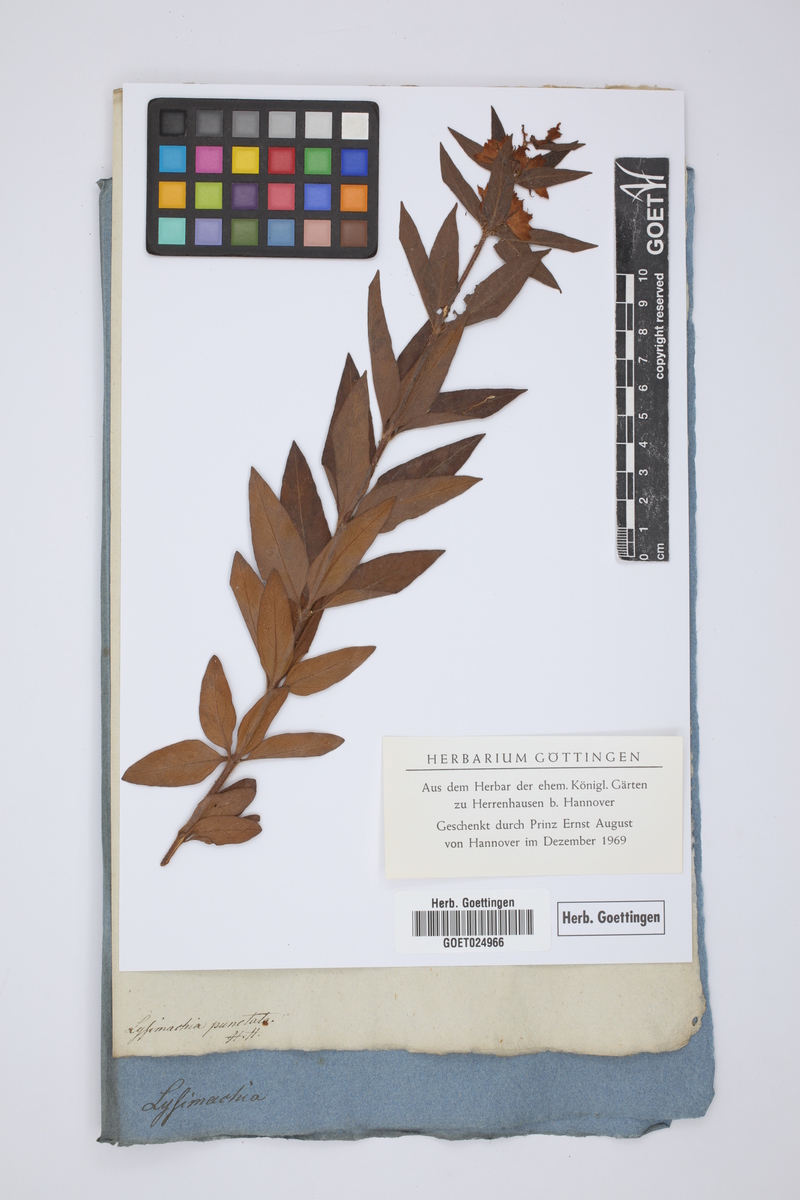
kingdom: Plantae
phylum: Tracheophyta
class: Magnoliopsida
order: Ericales
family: Primulaceae
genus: Lysimachia
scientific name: Lysimachia punctata
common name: Dotted loosestrife
